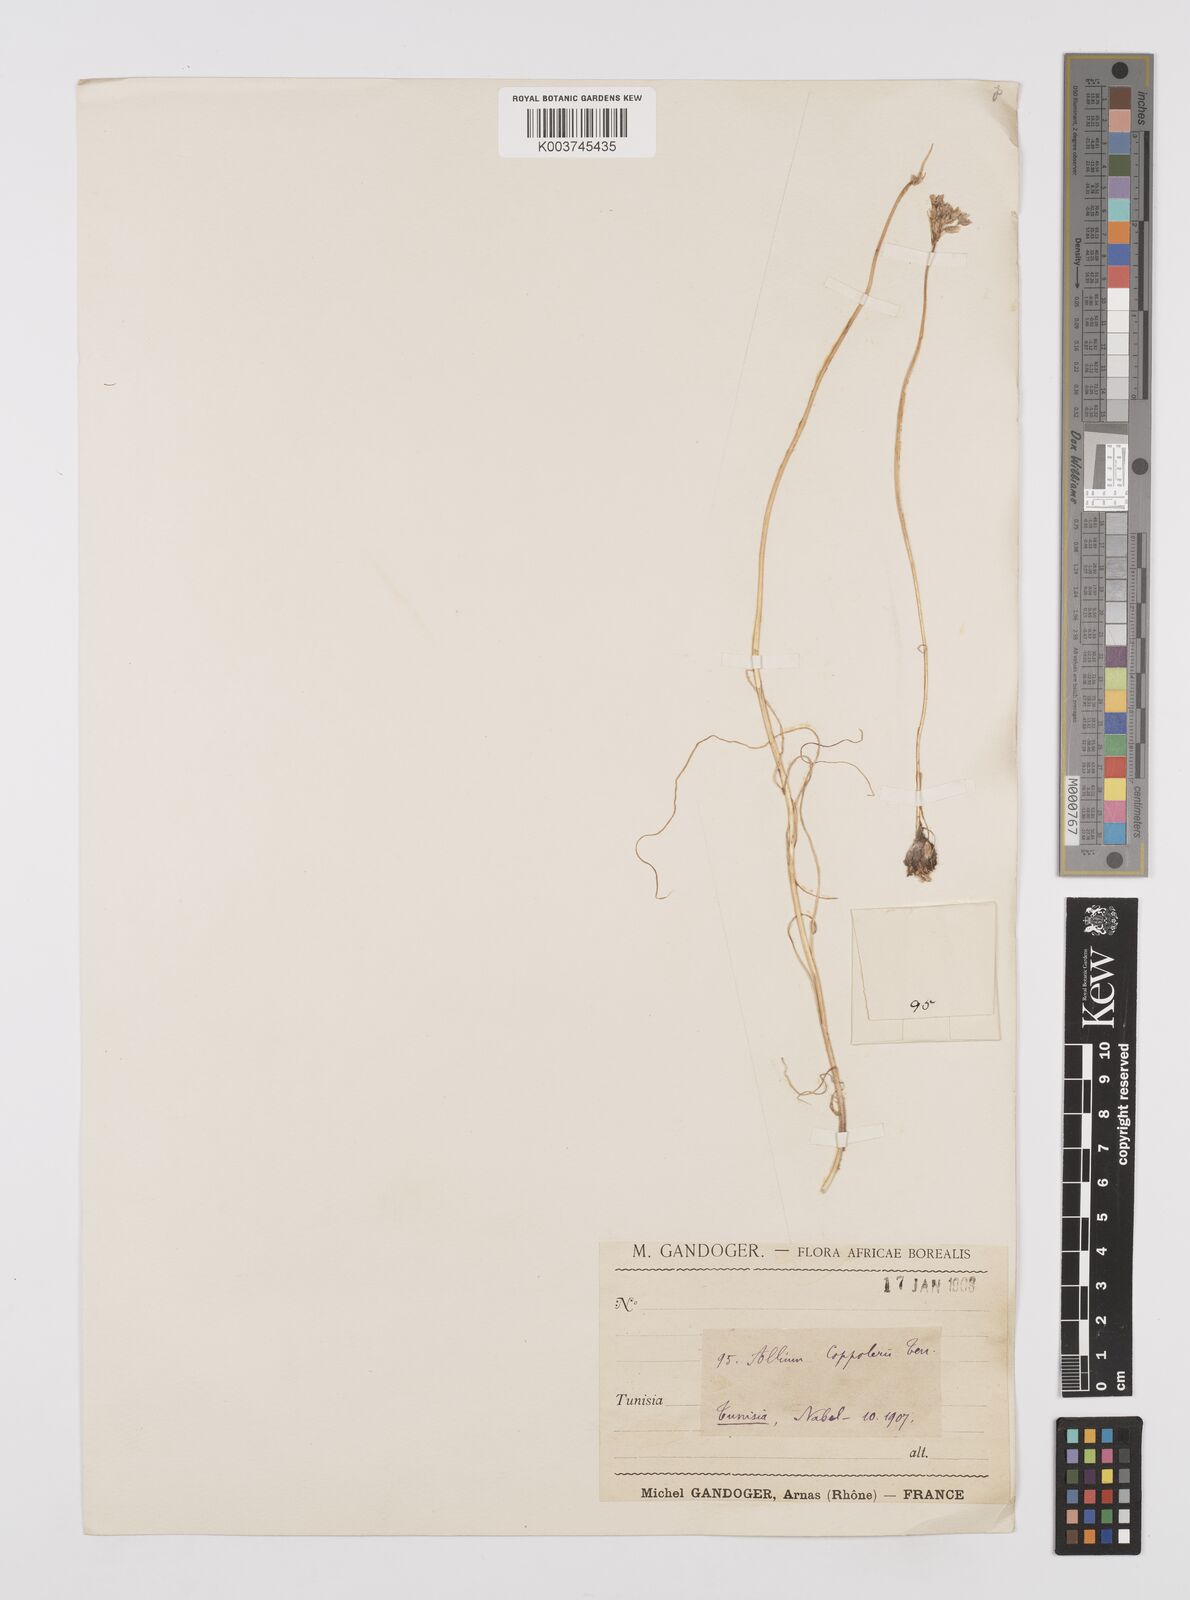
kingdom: Plantae
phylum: Tracheophyta
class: Liliopsida
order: Asparagales
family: Amaryllidaceae
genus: Allium
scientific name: Allium paniculatum
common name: Pale garlic
